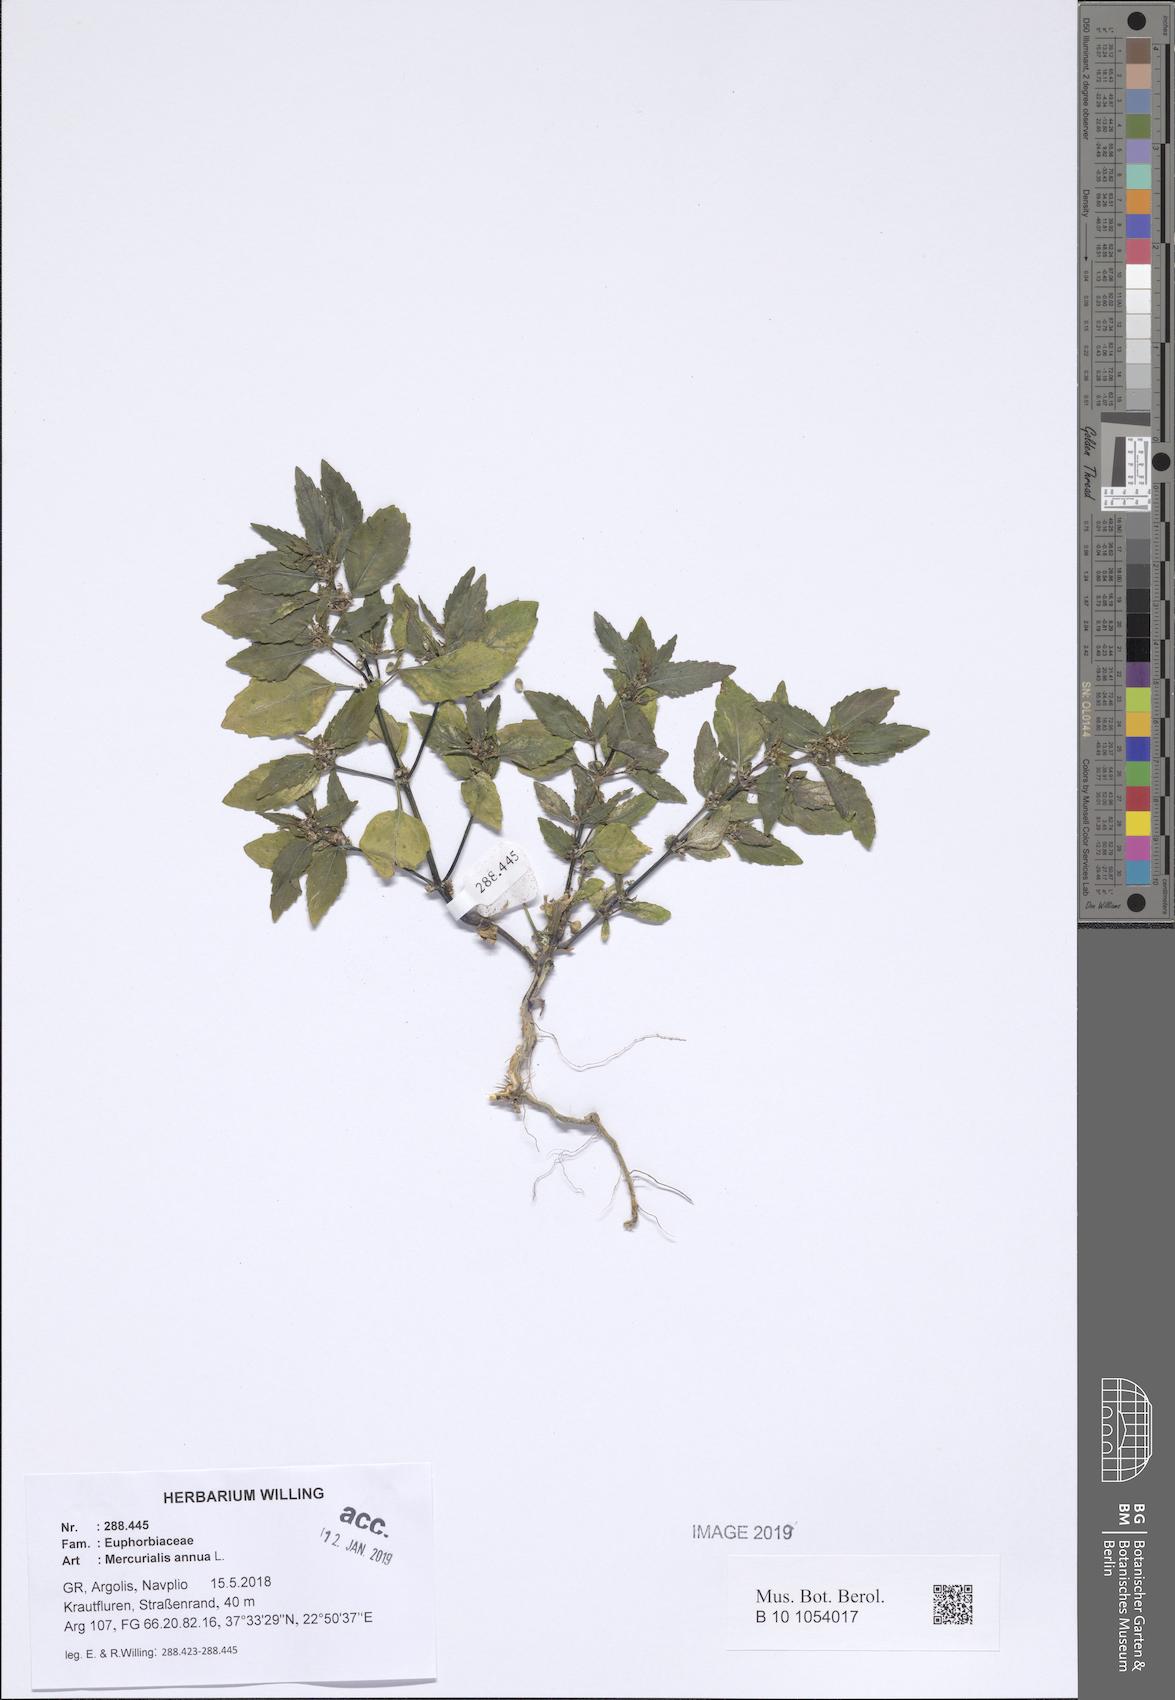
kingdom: Plantae
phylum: Tracheophyta
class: Magnoliopsida
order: Malpighiales
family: Euphorbiaceae
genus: Mercurialis
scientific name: Mercurialis annua
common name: Annual mercury
